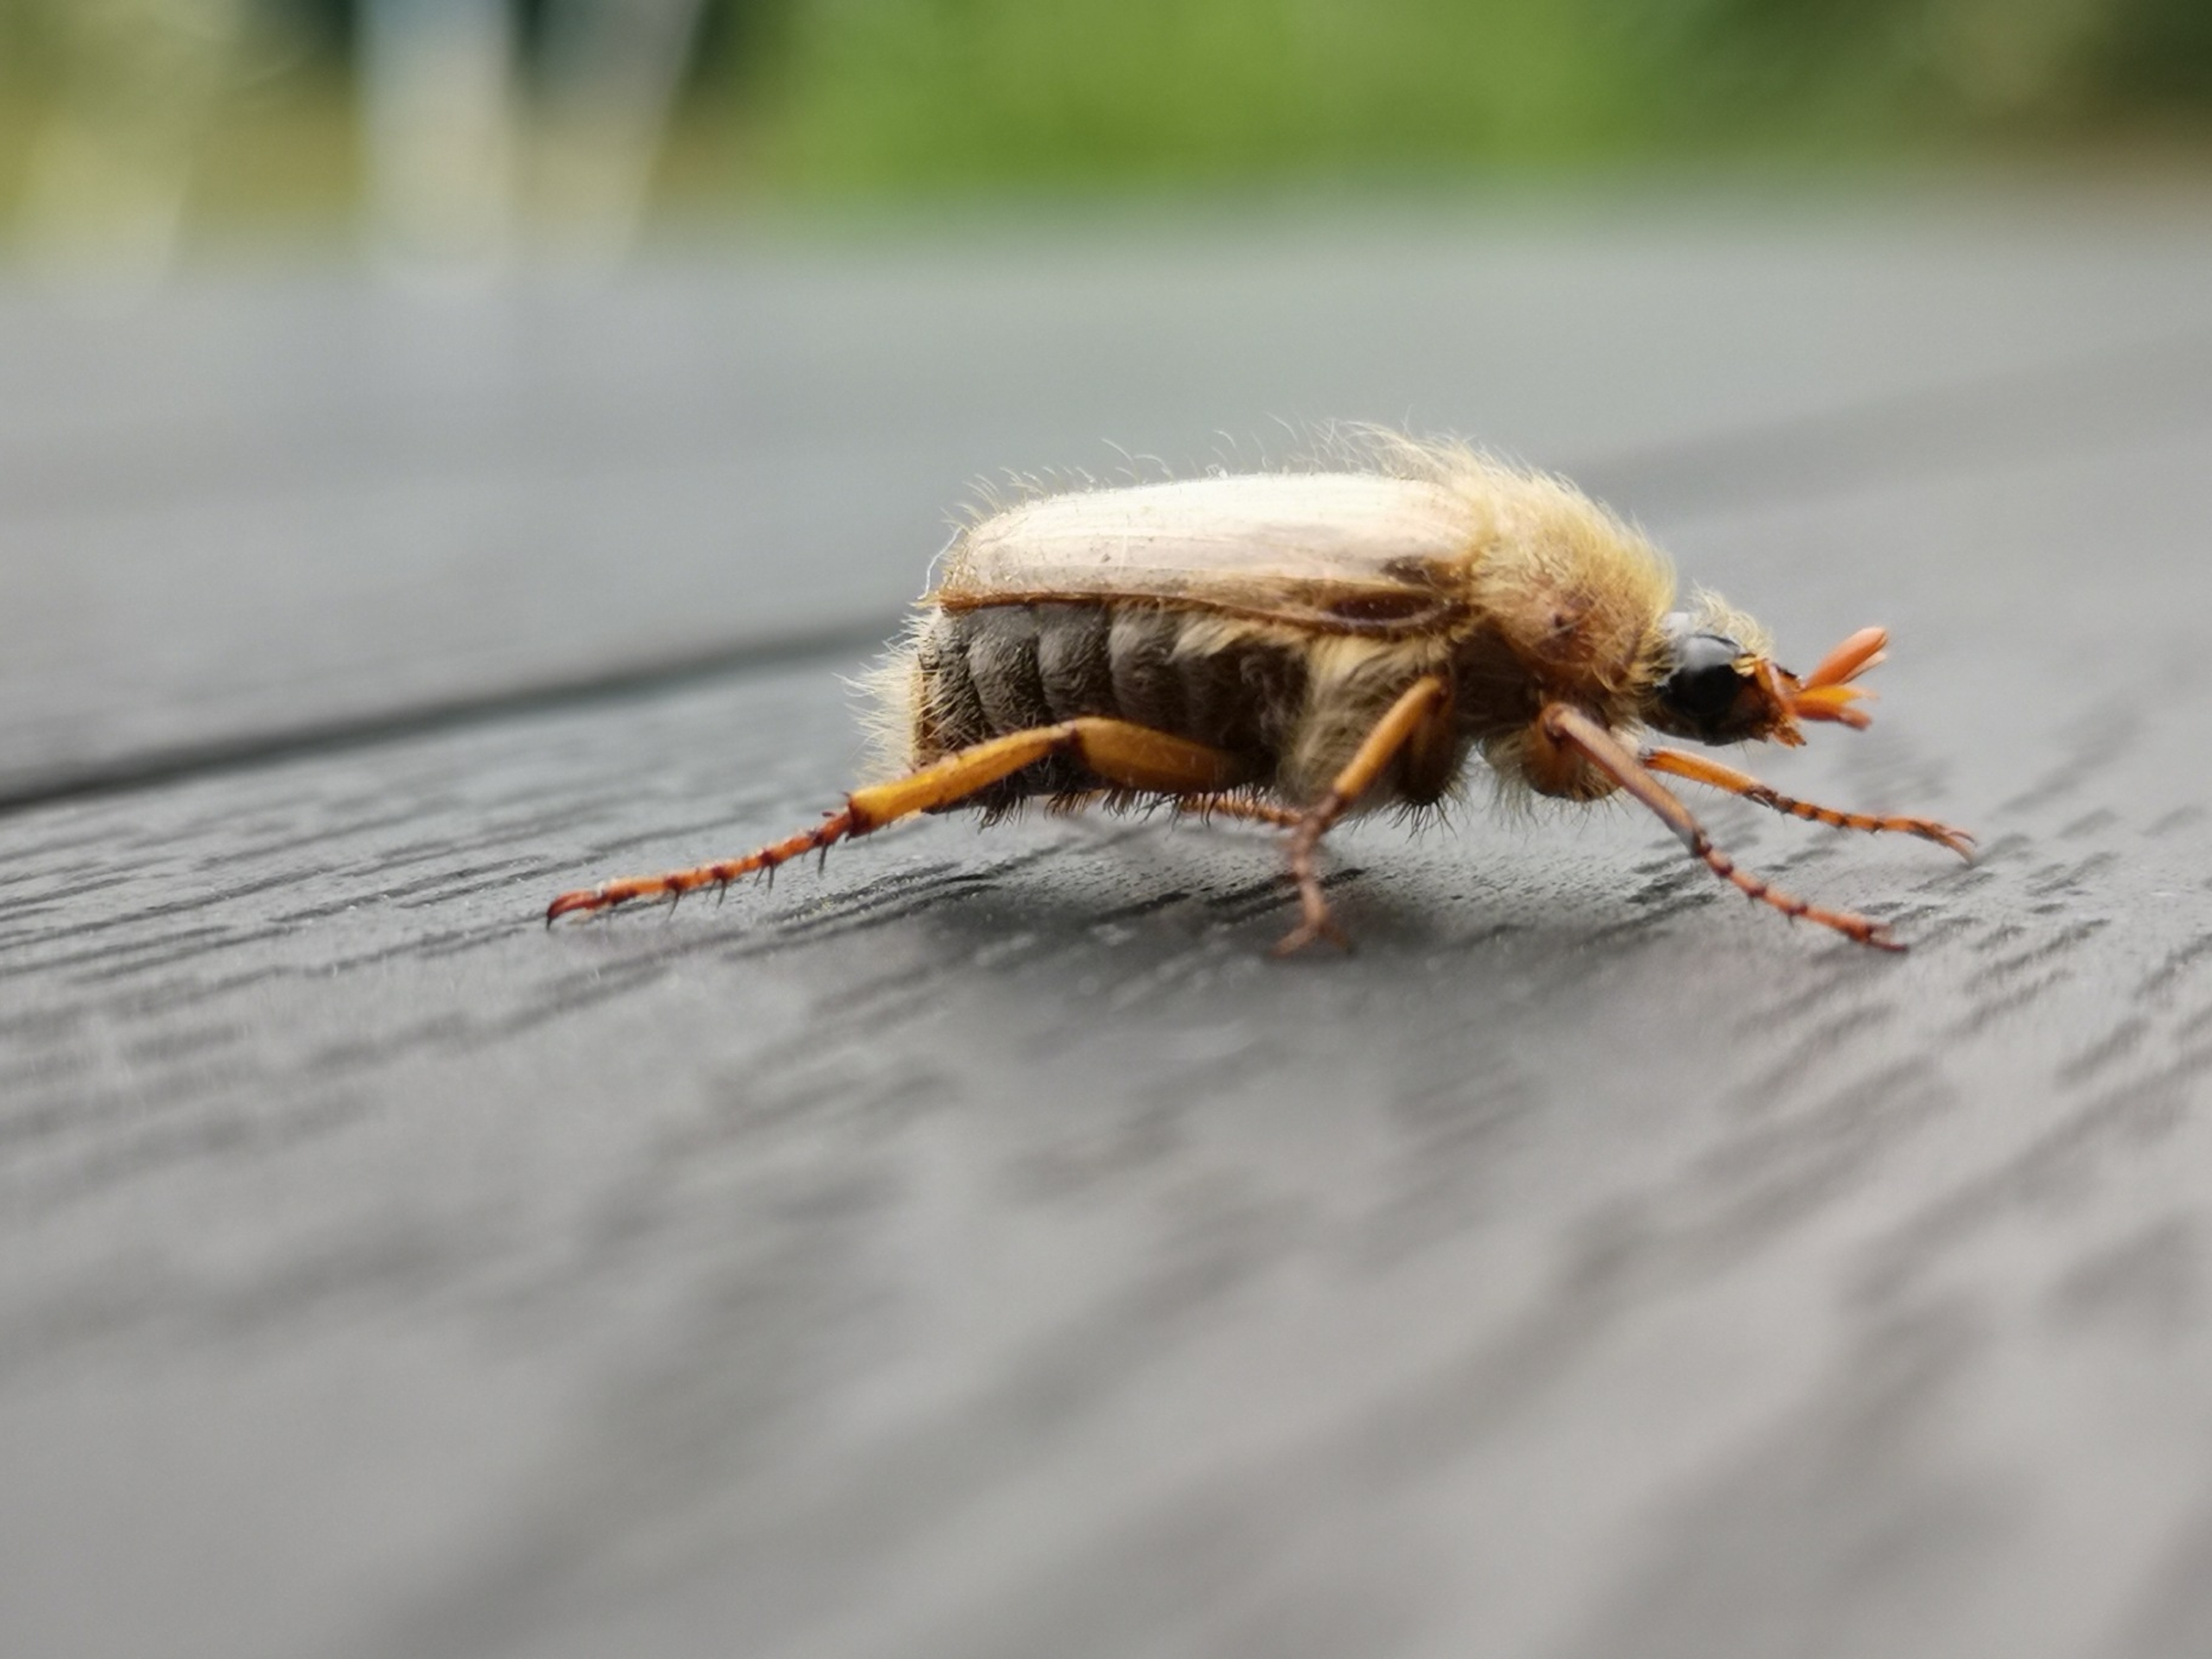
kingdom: Animalia
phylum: Arthropoda
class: Insecta
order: Coleoptera
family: Scarabaeidae
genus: Amphimallon
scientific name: Amphimallon solstitiale
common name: Sankthansoldenborre
